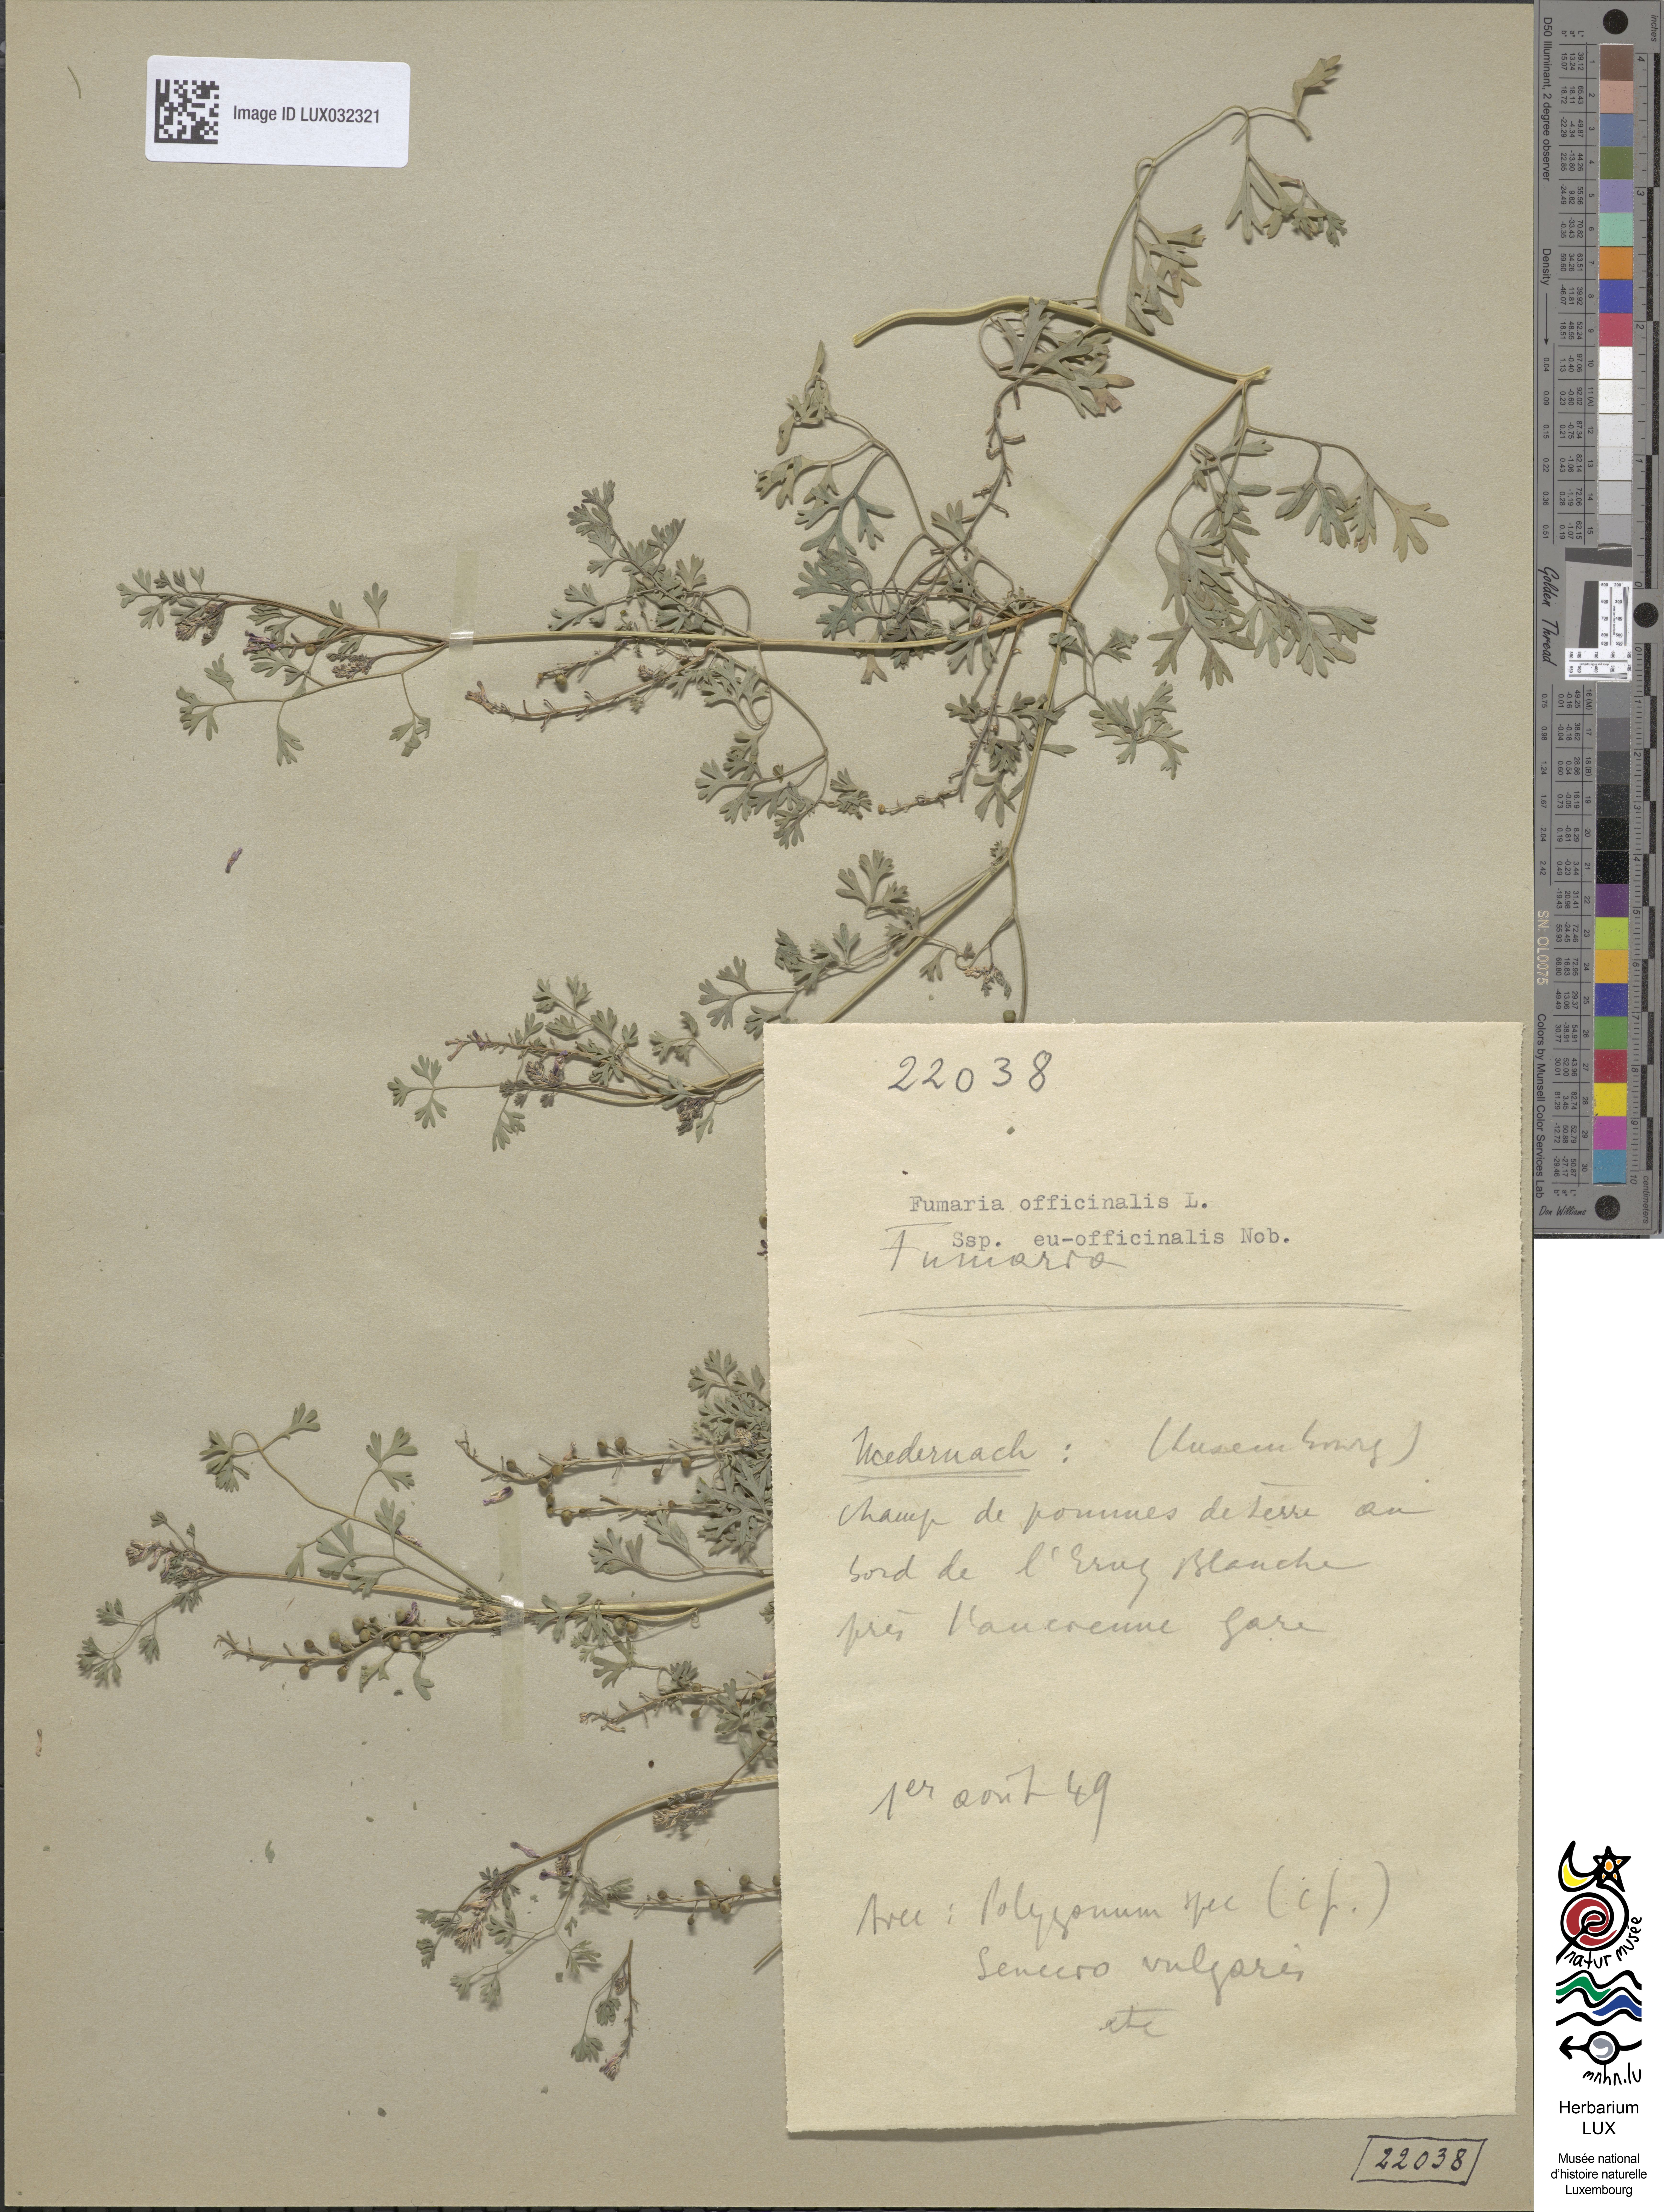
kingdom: Plantae
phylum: Tracheophyta
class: Magnoliopsida
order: Ranunculales
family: Papaveraceae
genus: Fumaria
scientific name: Fumaria officinalis
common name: Common fumitory
